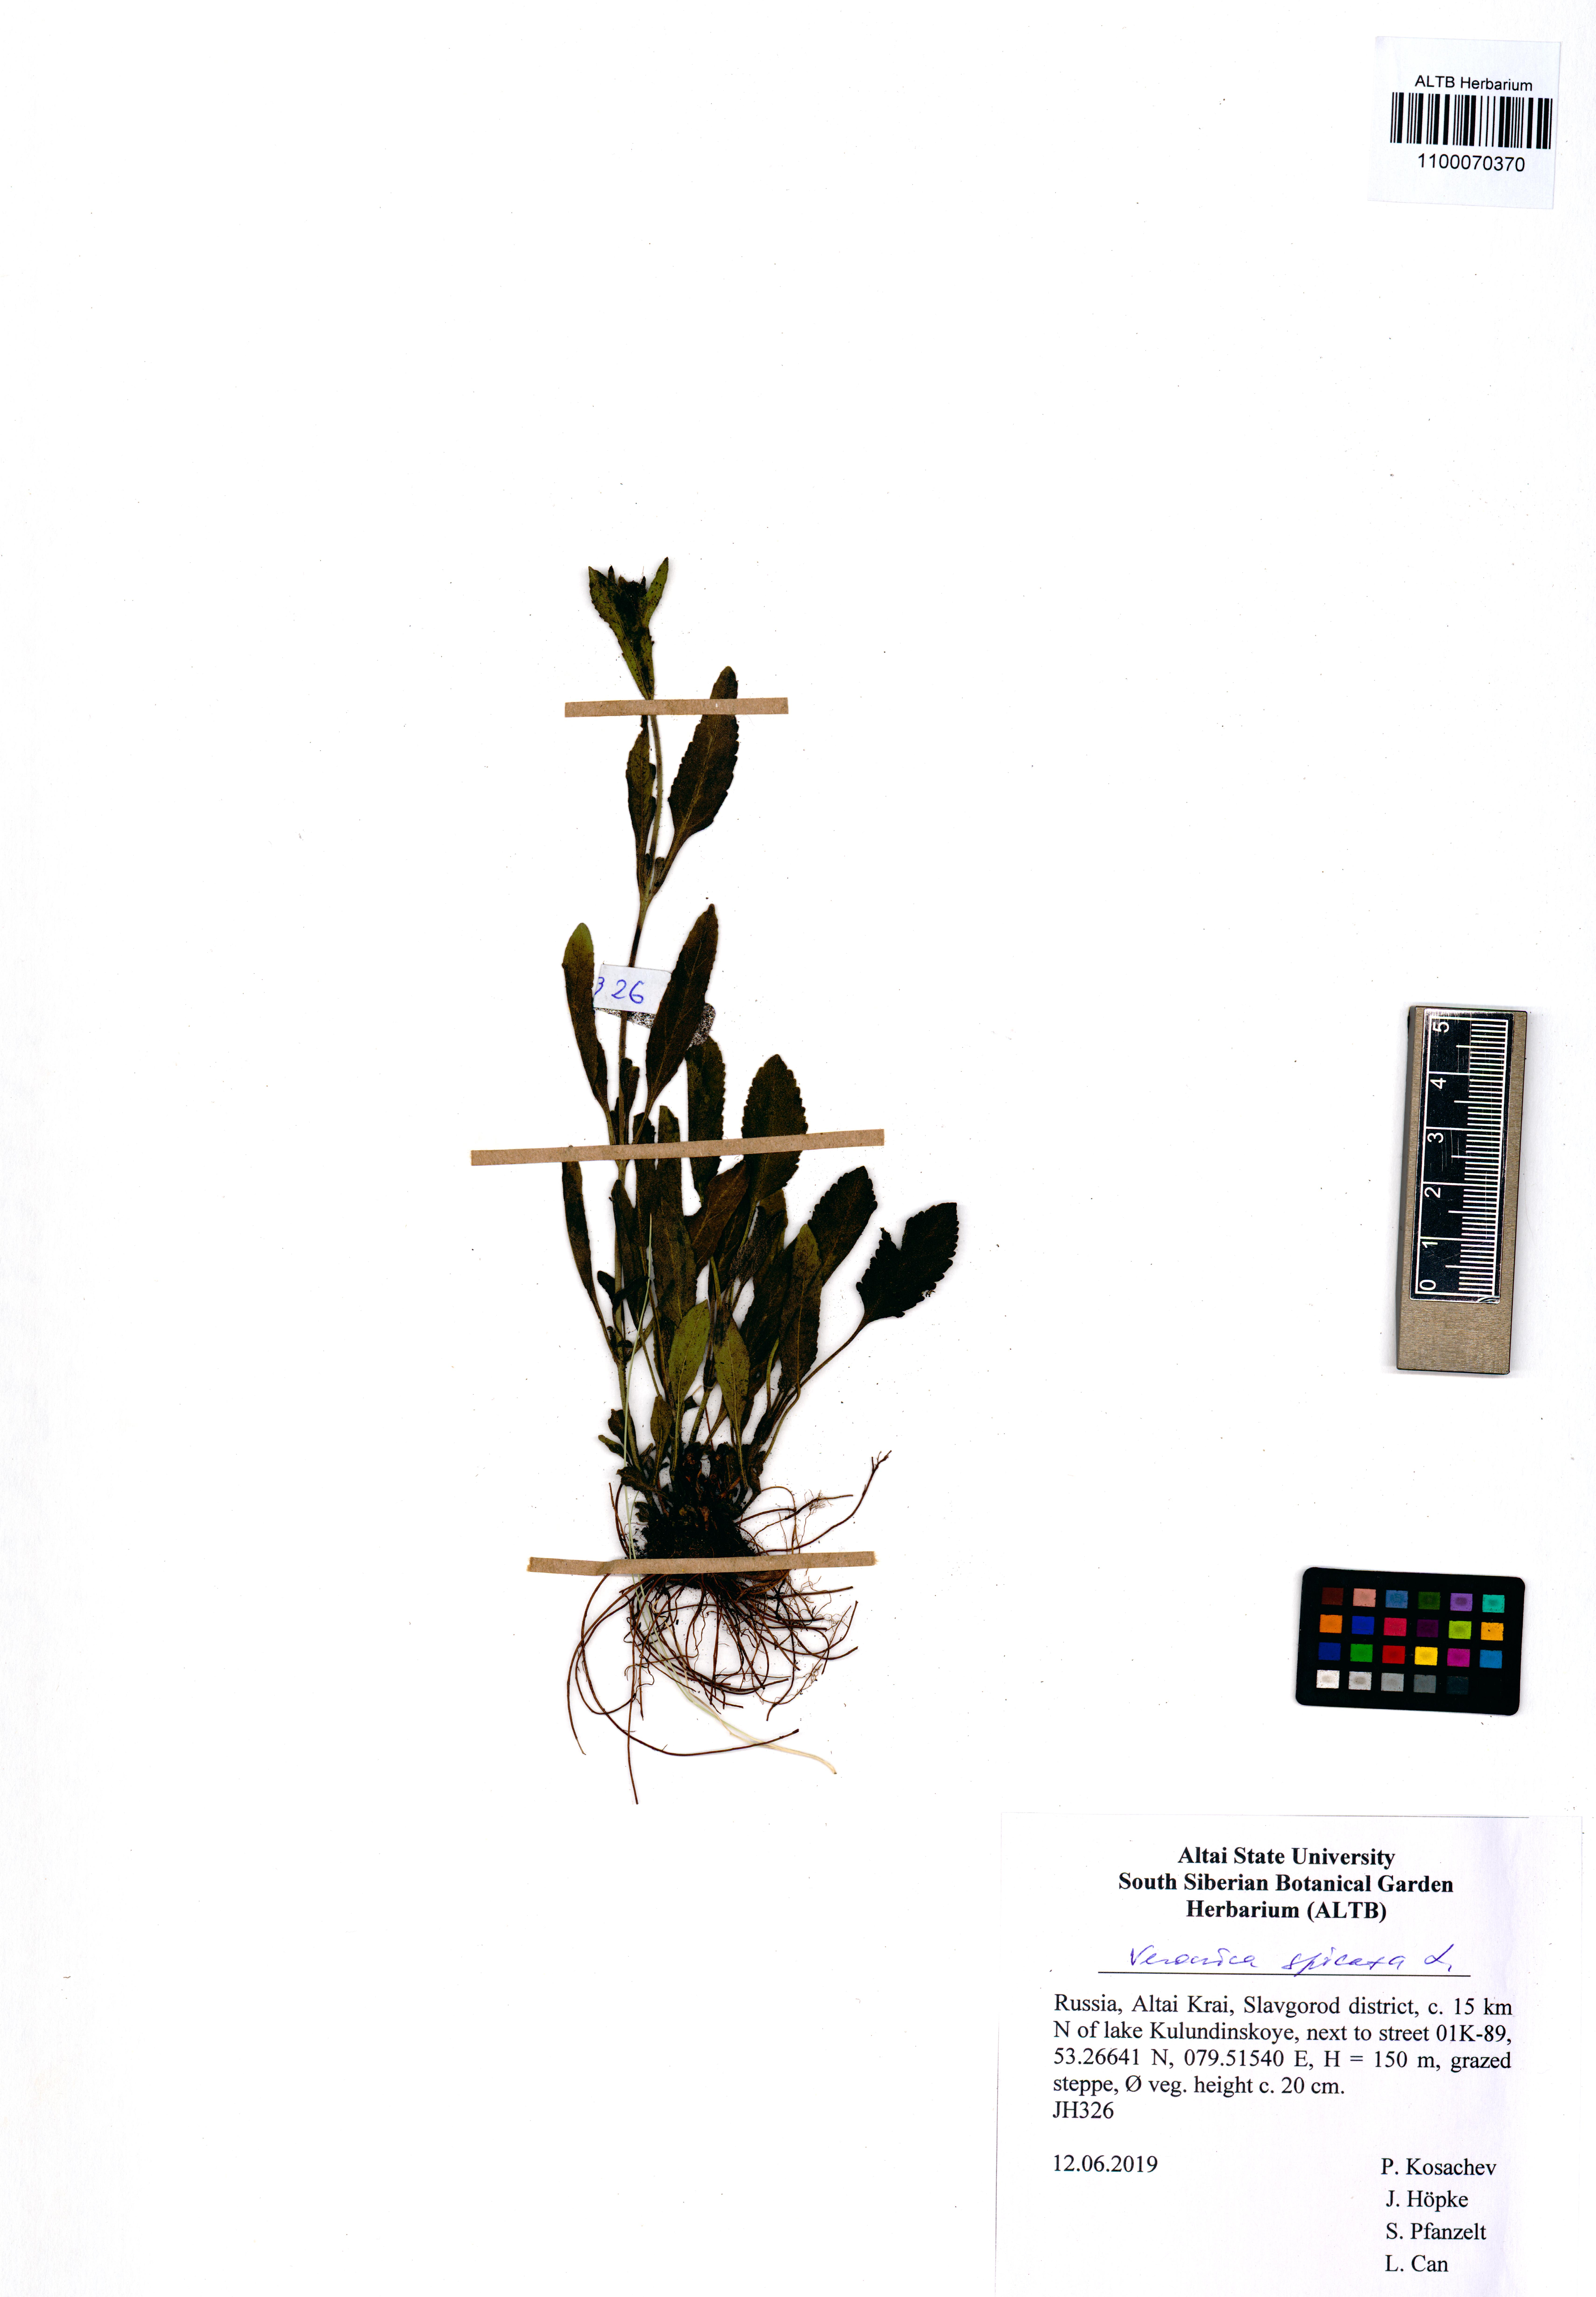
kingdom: Plantae
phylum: Tracheophyta
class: Magnoliopsida
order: Lamiales
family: Plantaginaceae
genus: Veronica
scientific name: Veronica spicata
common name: Spiked speedwell
